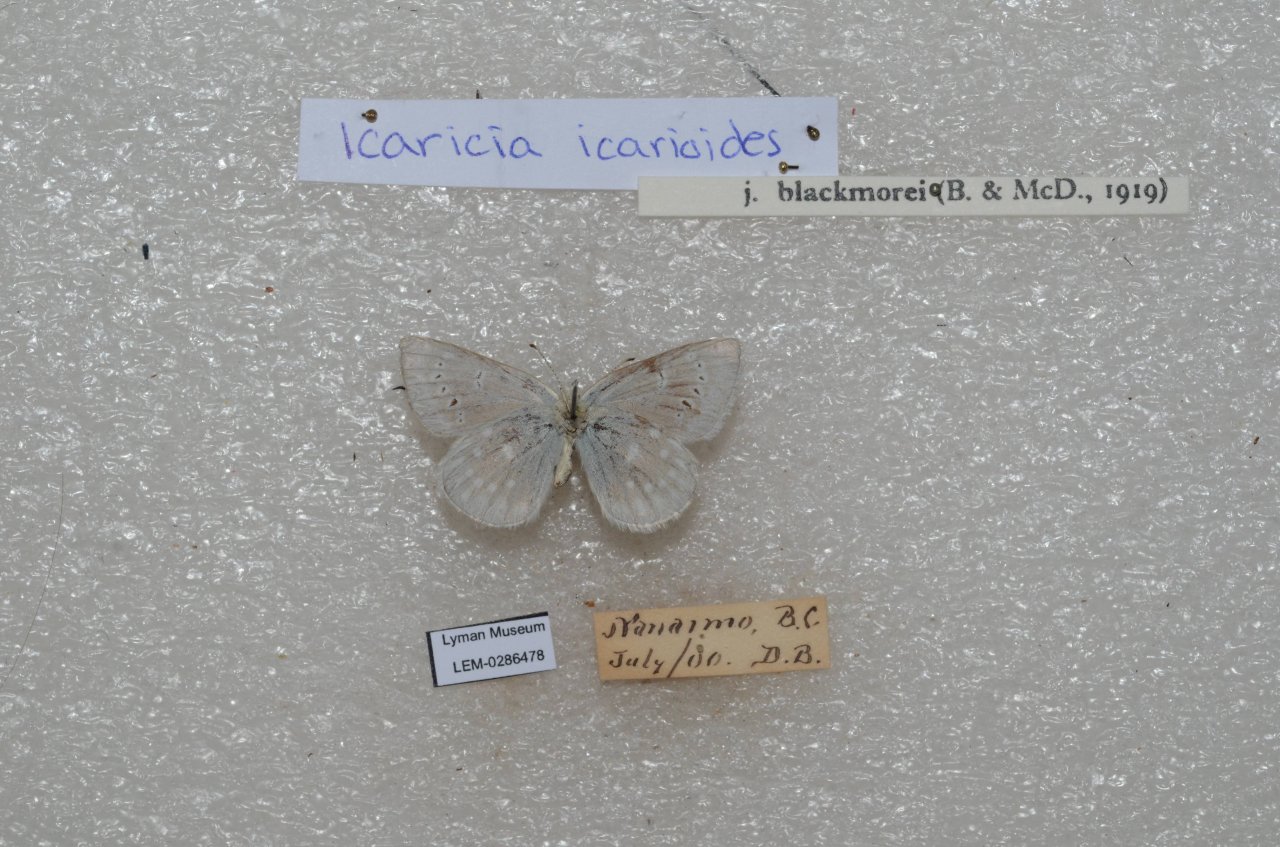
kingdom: Animalia
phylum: Arthropoda
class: Insecta
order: Lepidoptera
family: Lycaenidae
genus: Icaricia
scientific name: Icaricia icarioides
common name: Boisduval's Blue
